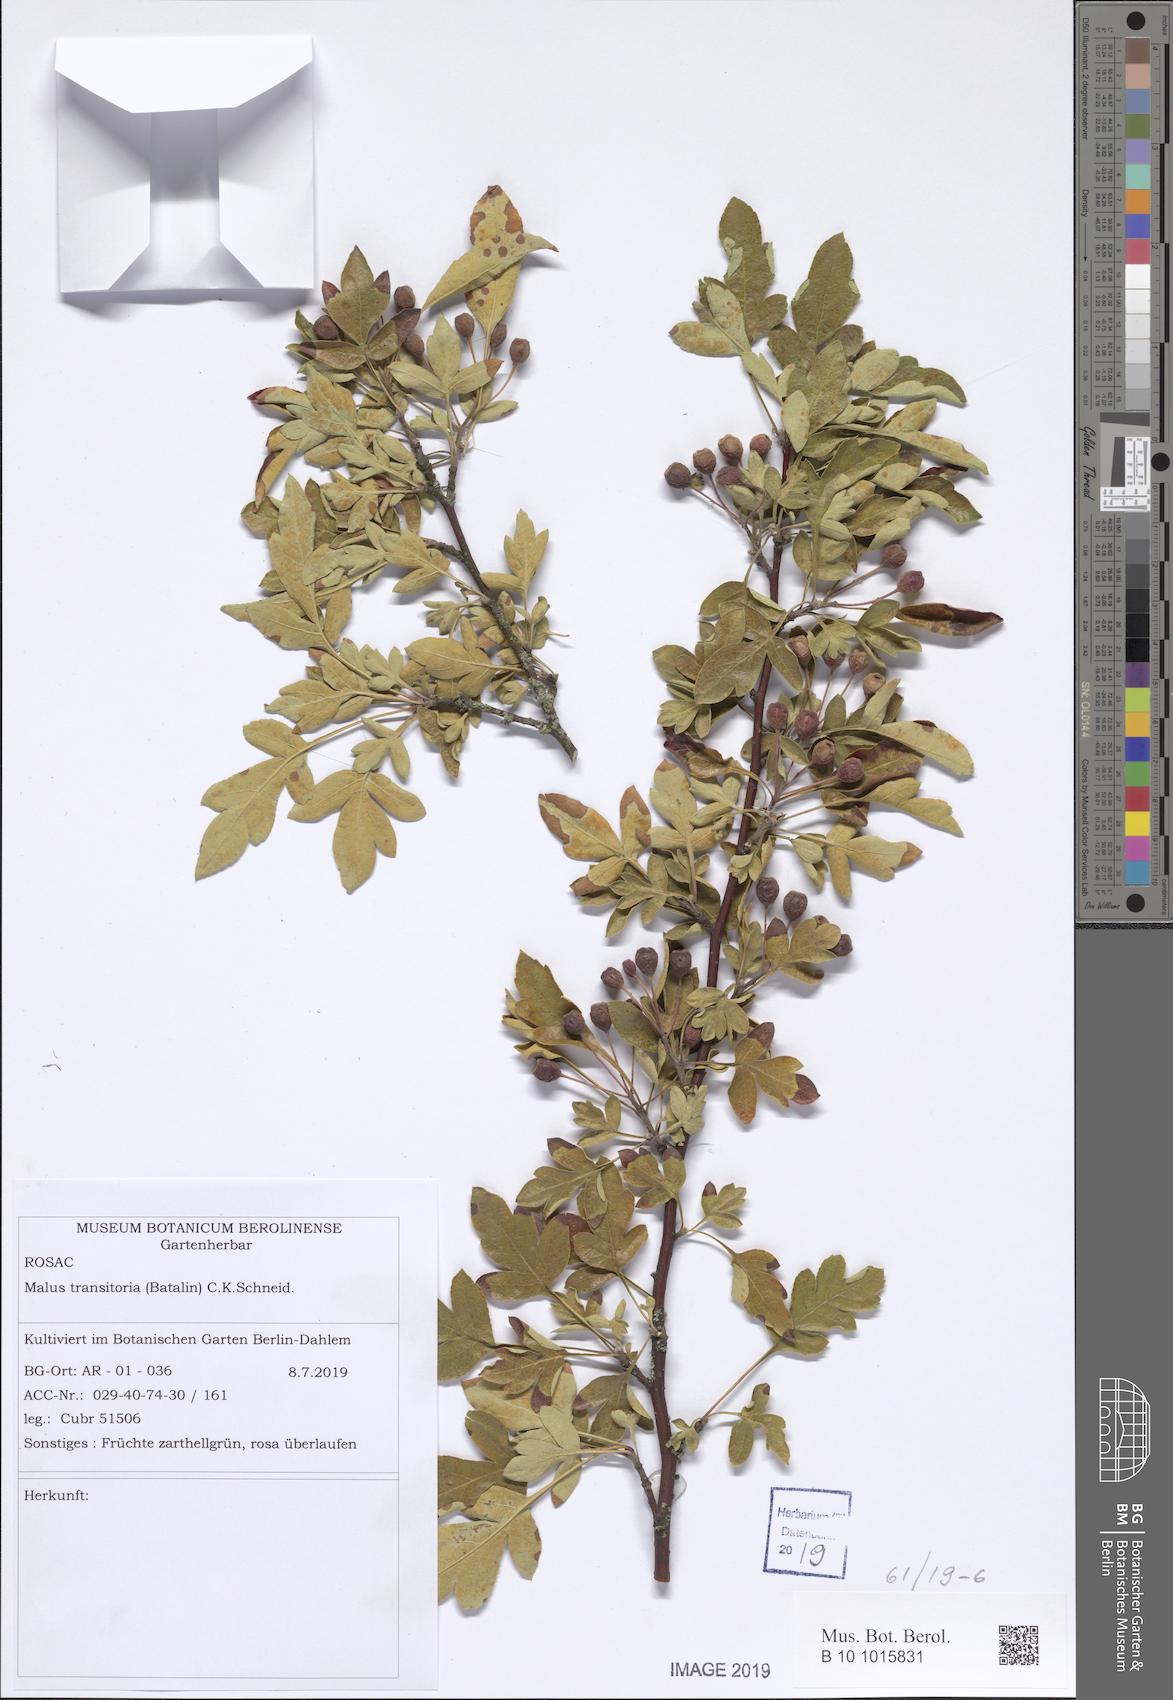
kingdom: Plantae
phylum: Tracheophyta
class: Magnoliopsida
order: Rosales
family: Rosaceae
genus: Malus
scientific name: Malus transitoria
